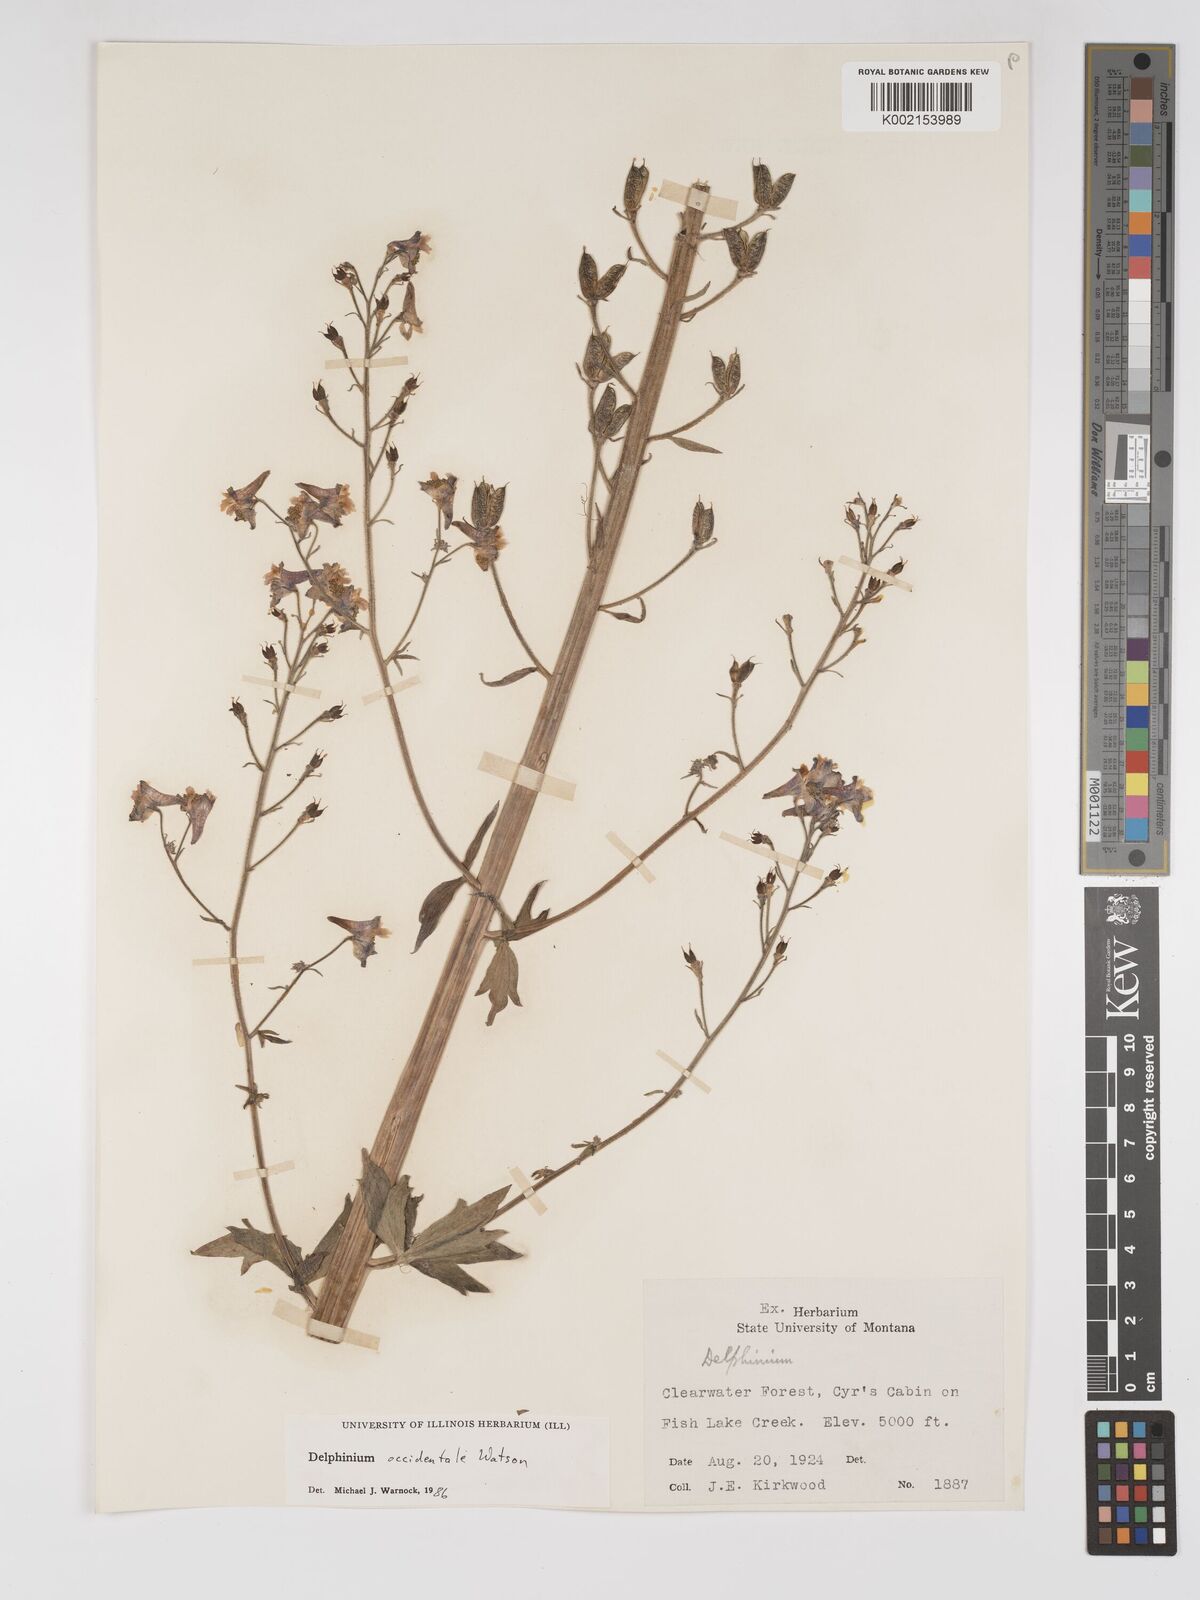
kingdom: Plantae
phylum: Tracheophyta
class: Magnoliopsida
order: Ranunculales
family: Ranunculaceae
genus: Delphinium
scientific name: Delphinium occidentale
